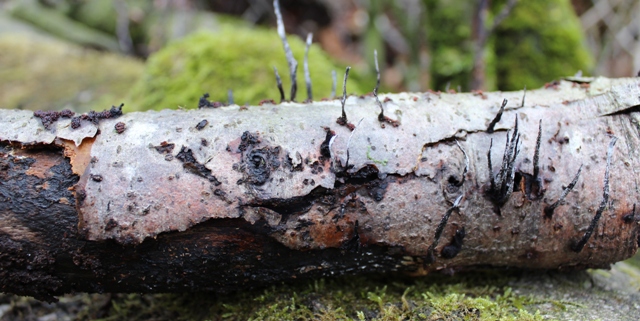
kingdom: Fungi
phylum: Ascomycota
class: Sordariomycetes
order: Xylariales
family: Xylariaceae
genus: Xylaria
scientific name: Xylaria hypoxylon
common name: grenet stødsvamp
